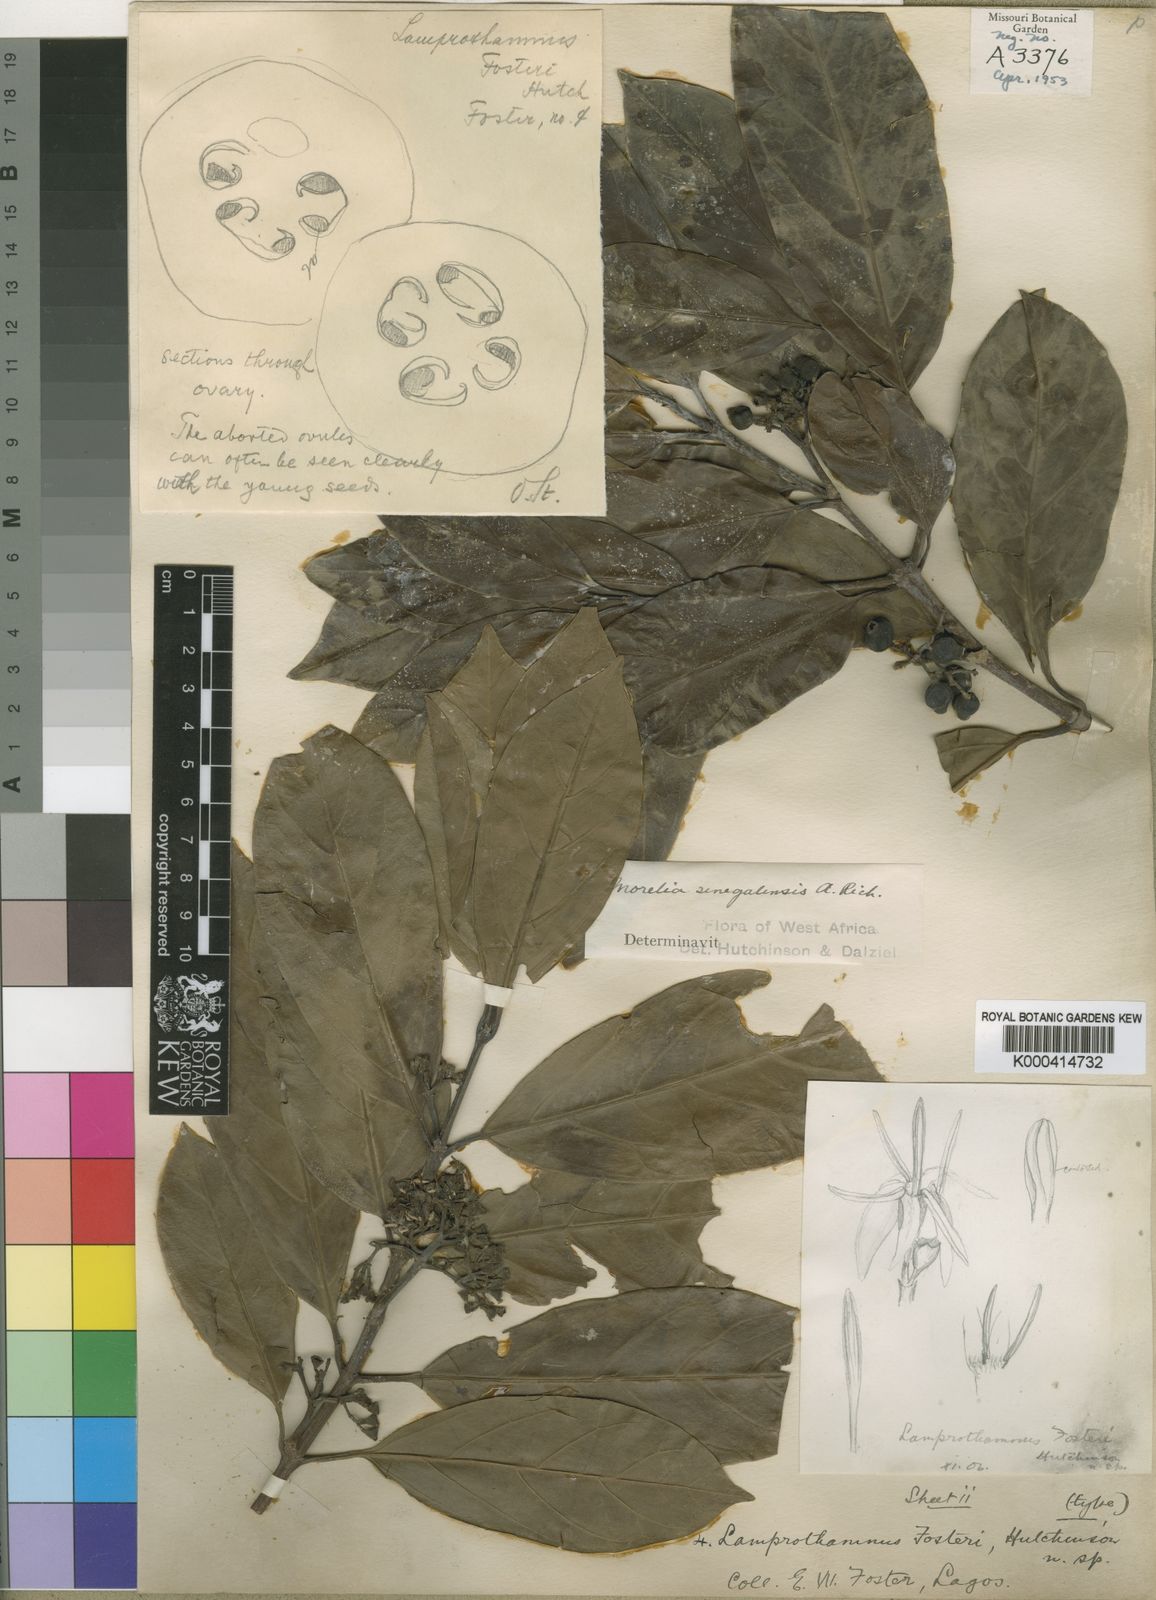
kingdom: Plantae
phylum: Tracheophyta
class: Magnoliopsida
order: Gentianales
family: Rubiaceae
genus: Morelia
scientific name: Morelia senegalensis
